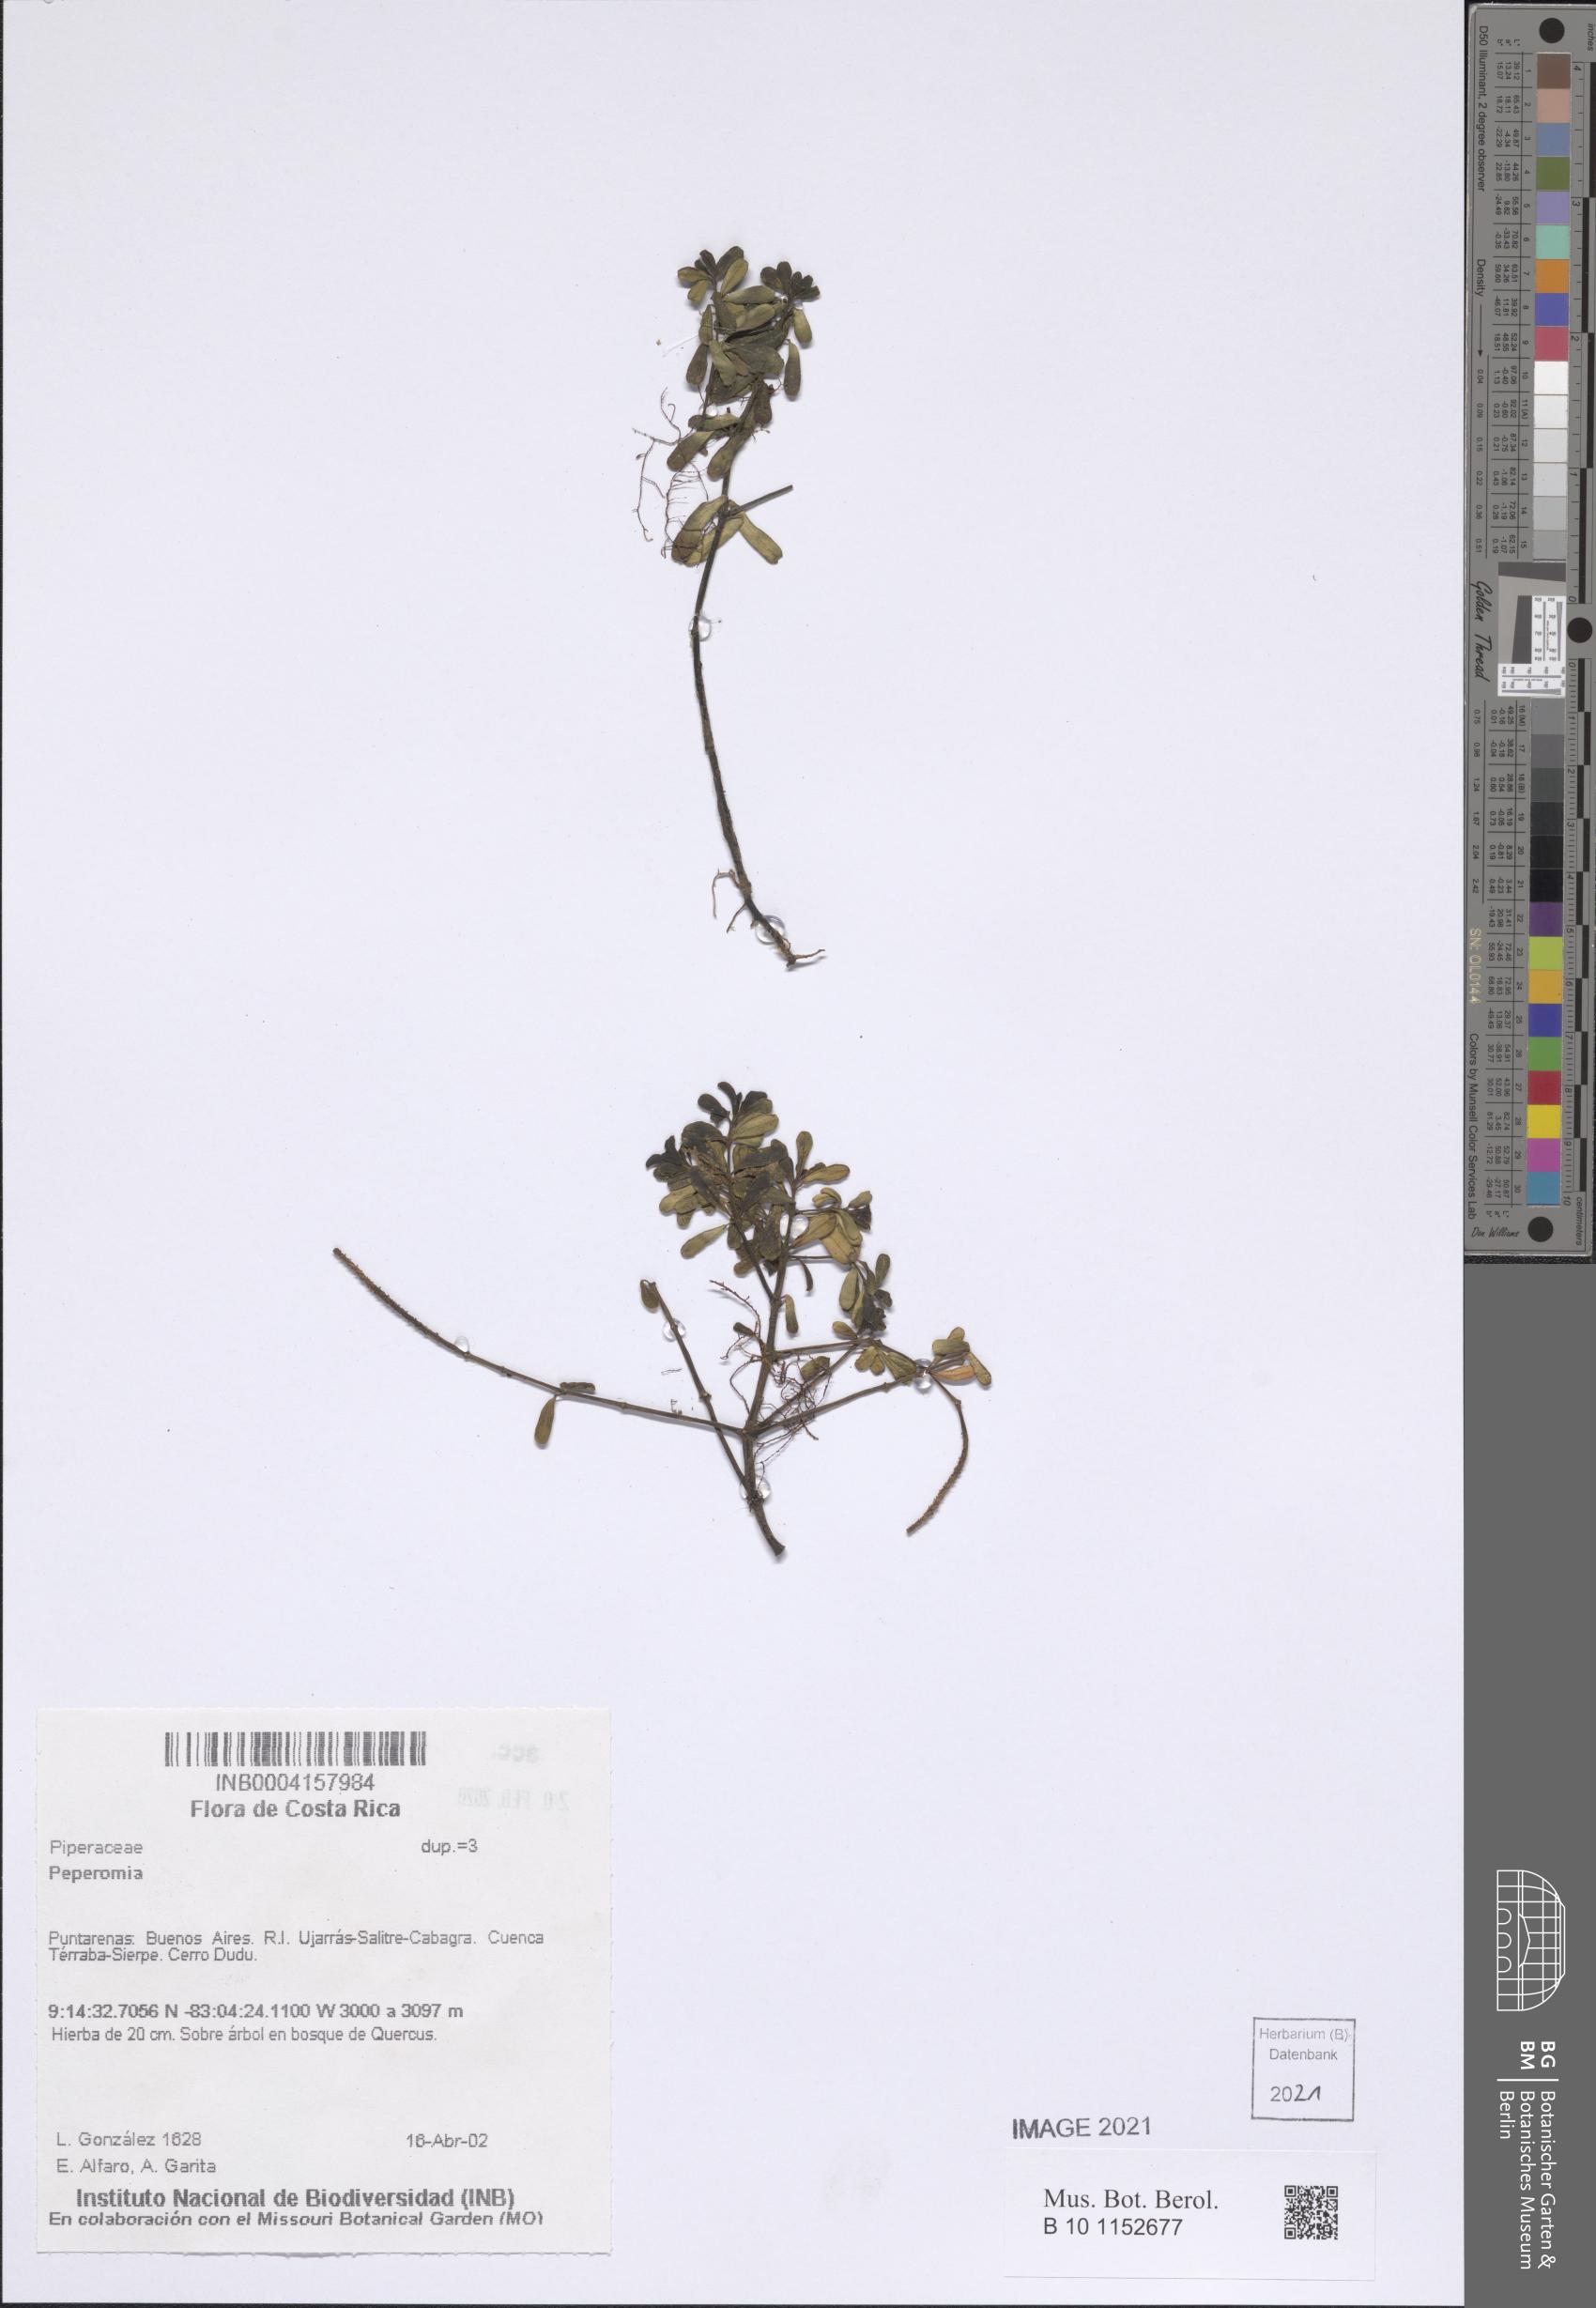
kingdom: Plantae
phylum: Tracheophyta
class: Magnoliopsida
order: Piperales
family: Piperaceae
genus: Peperomia
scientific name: Peperomia
